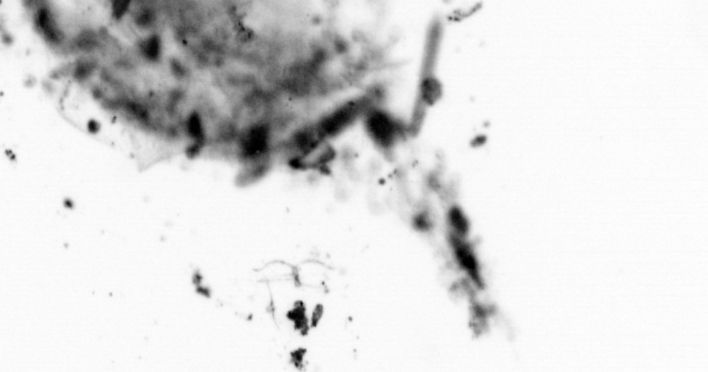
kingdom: Animalia
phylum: Chordata
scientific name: Chordata
